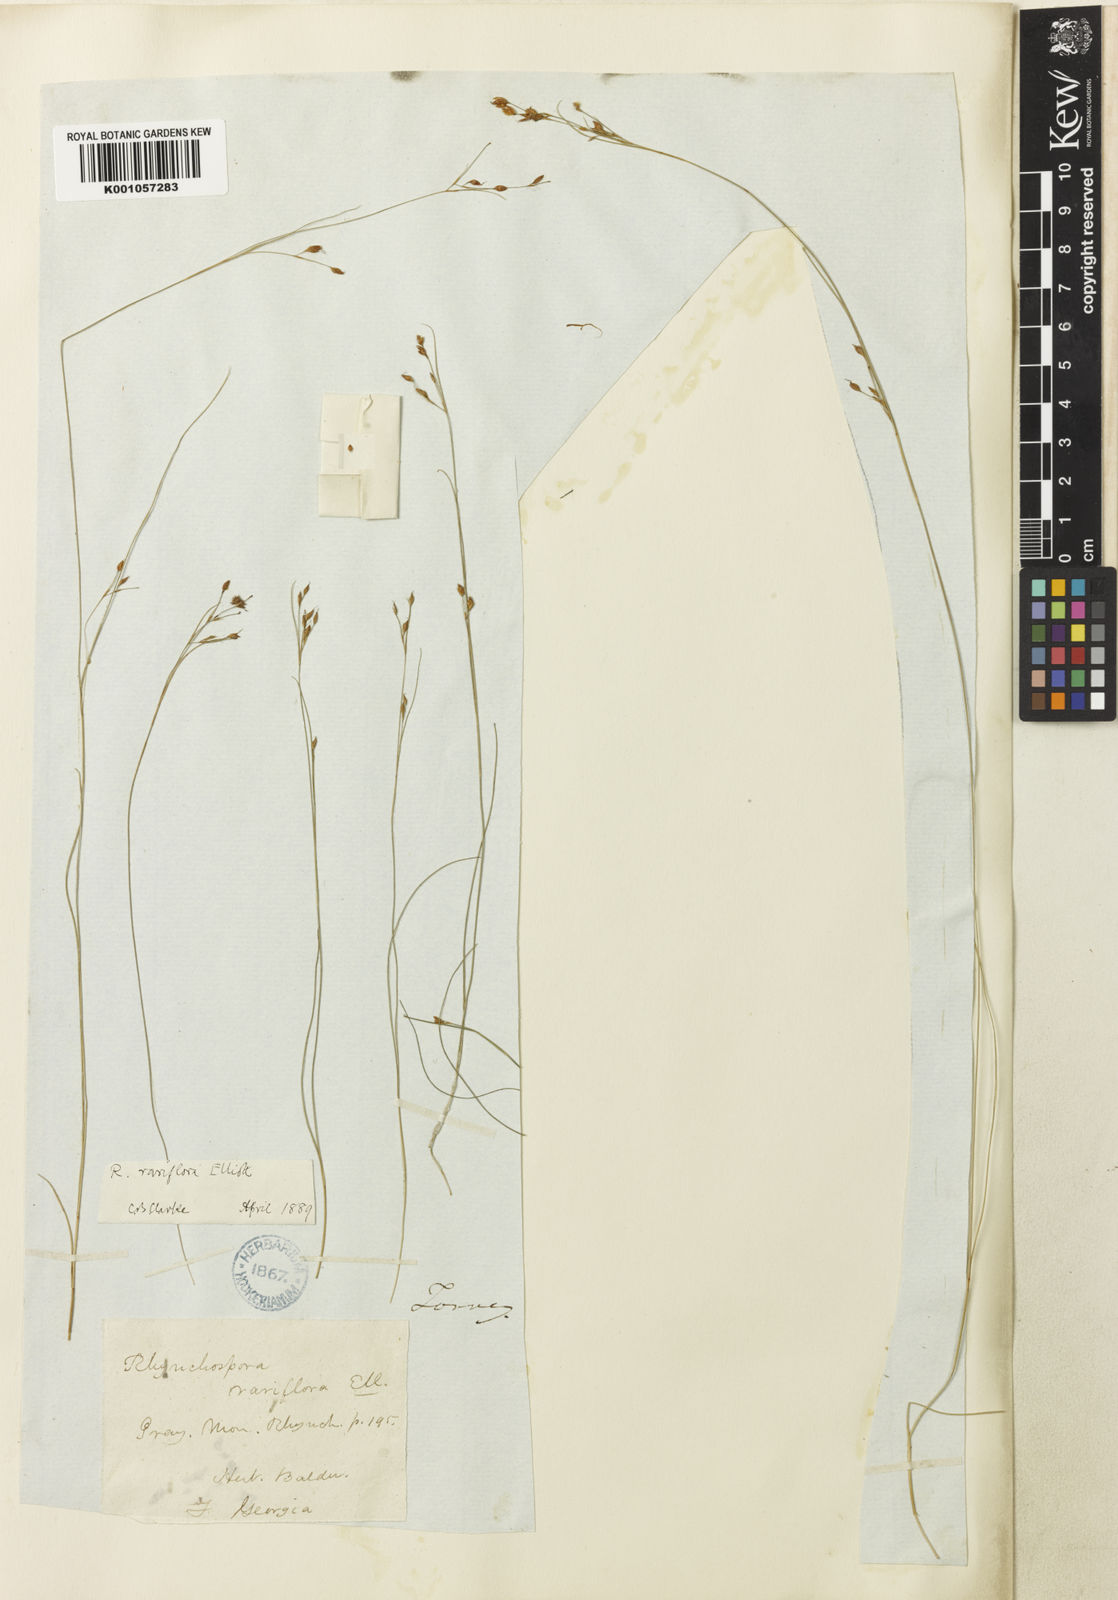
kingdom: Plantae
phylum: Tracheophyta
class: Liliopsida
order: Poales
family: Cyperaceae
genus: Rhynchospora
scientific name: Rhynchospora rariflora
